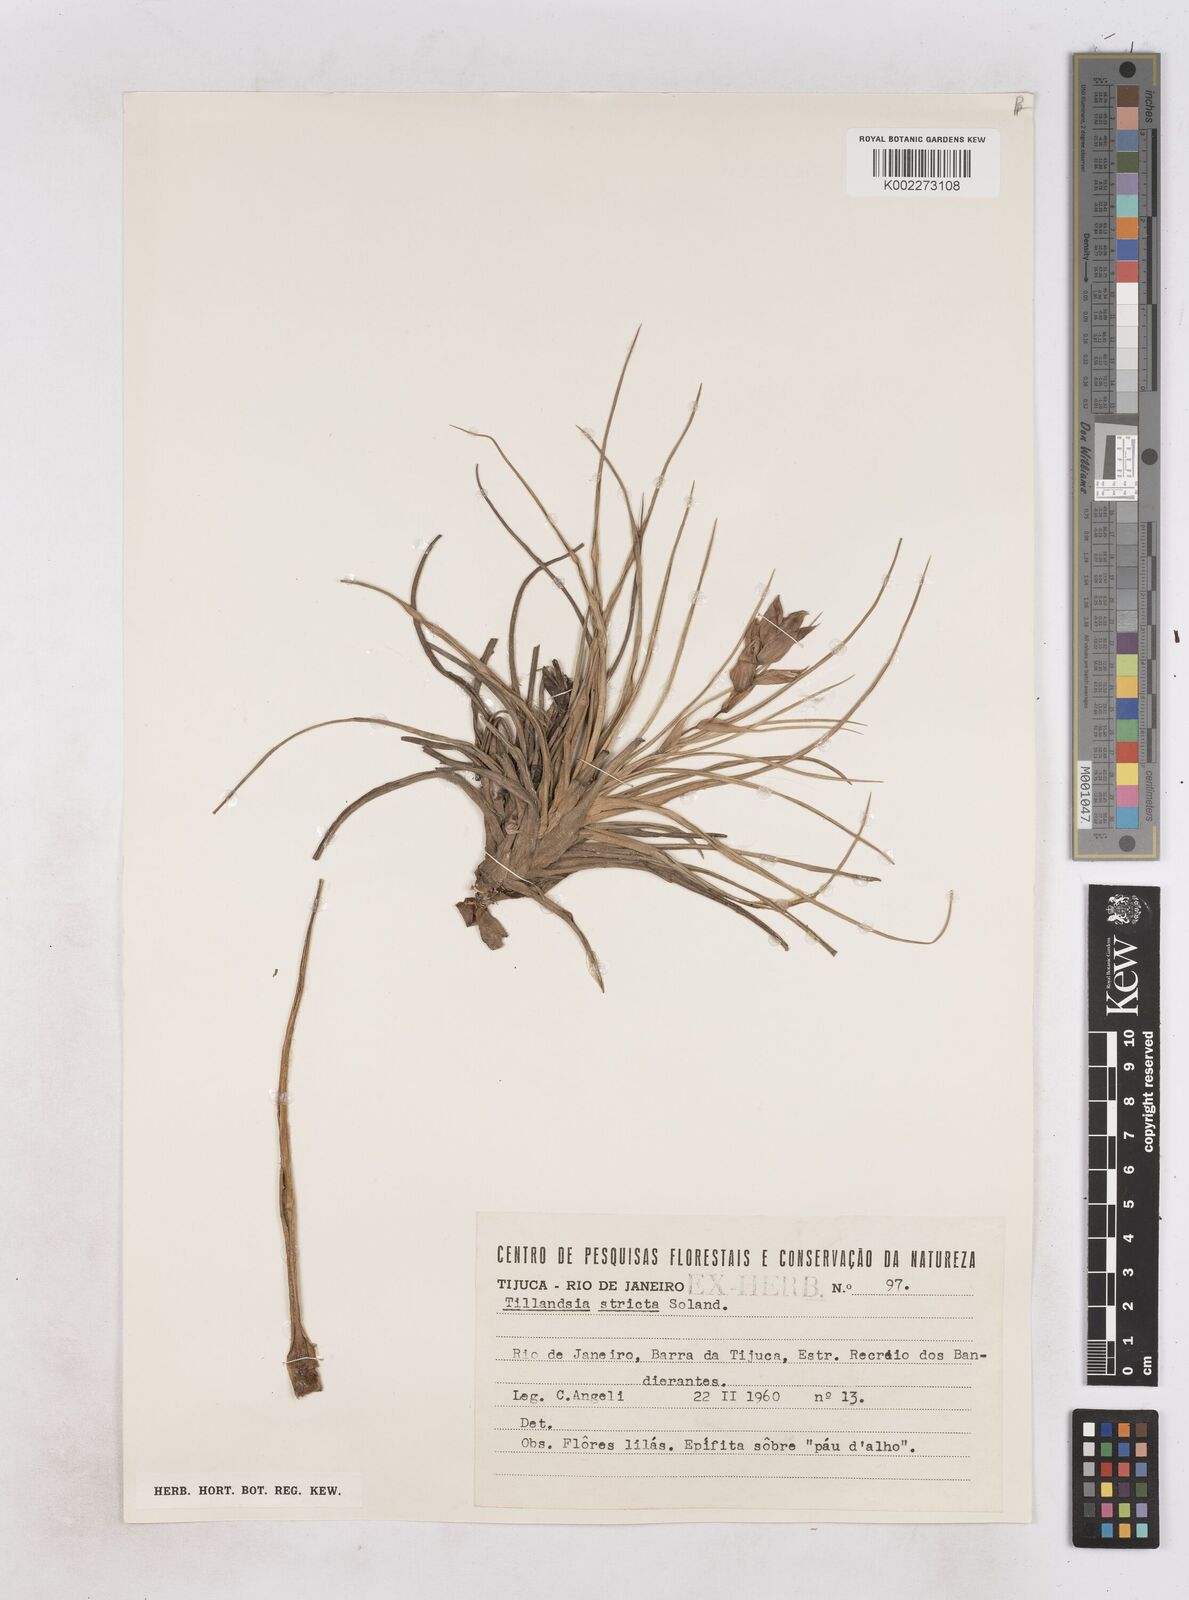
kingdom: Plantae
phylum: Tracheophyta
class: Liliopsida
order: Poales
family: Bromeliaceae
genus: Tillandsia
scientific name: Tillandsia stricta
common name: Airplant
